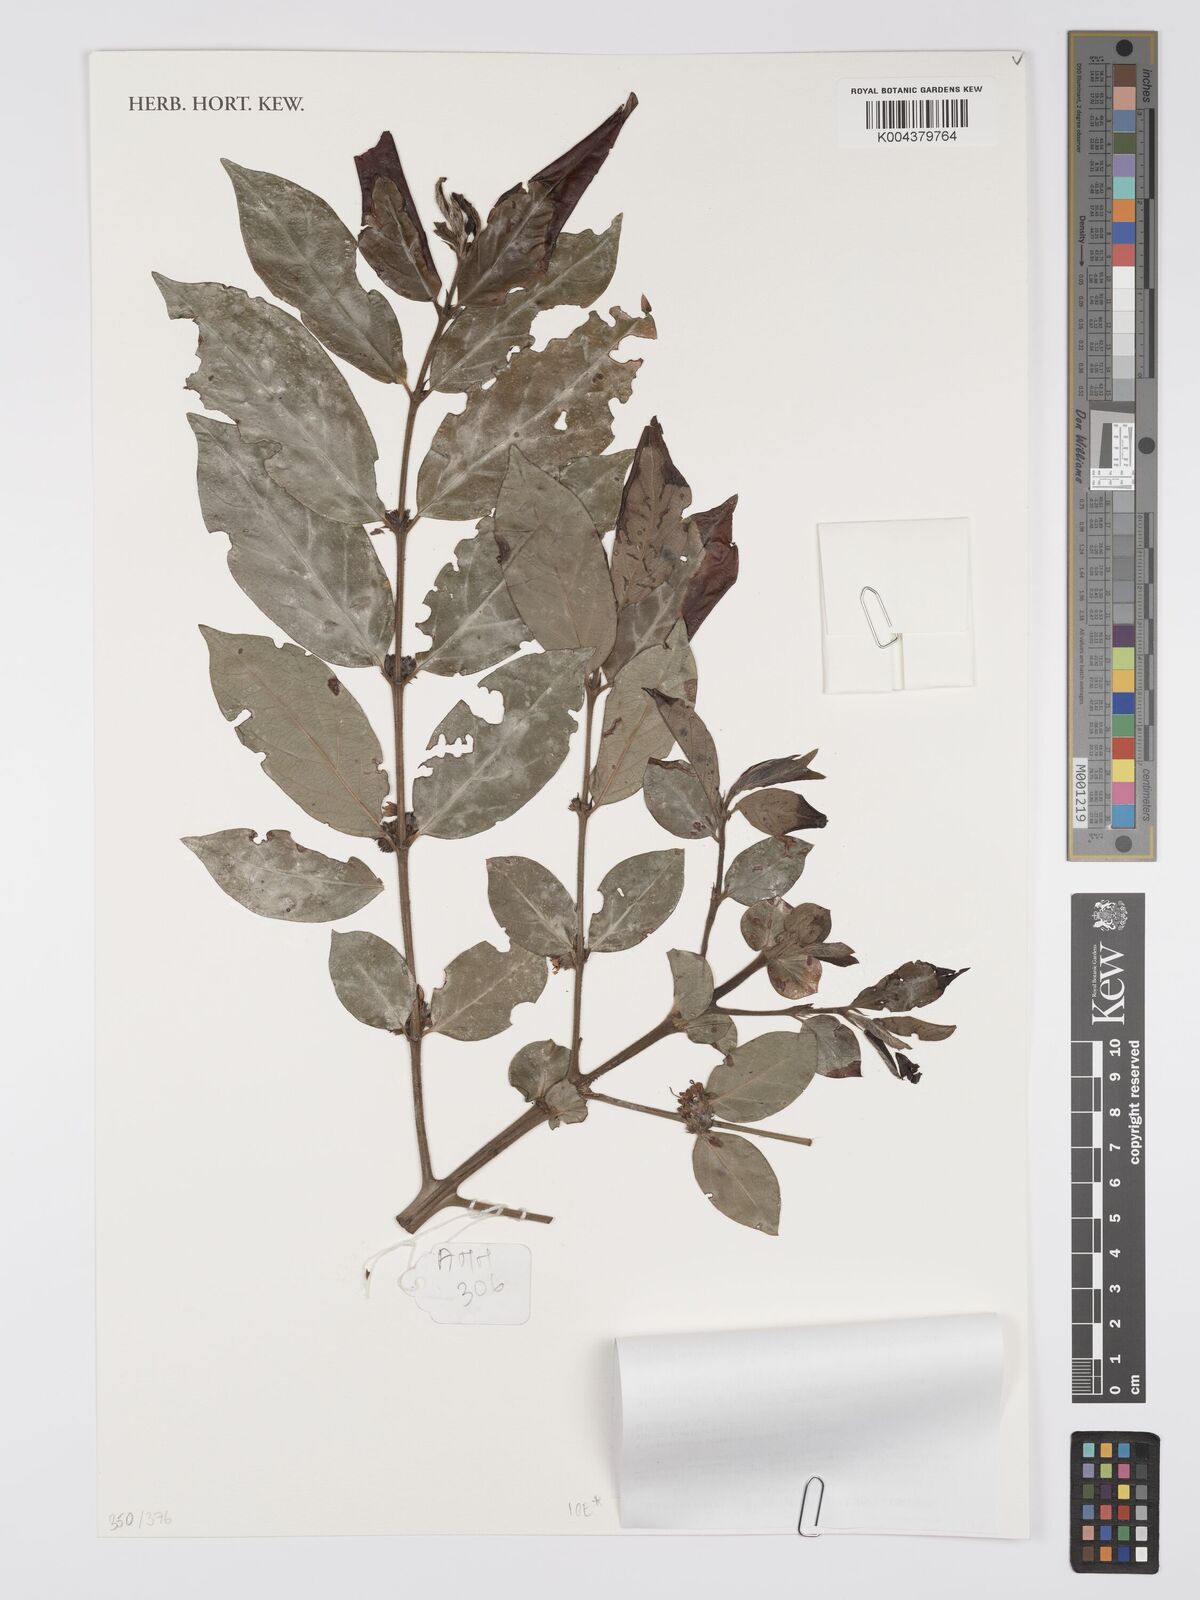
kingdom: Plantae
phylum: Tracheophyta
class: Magnoliopsida
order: Gentianales
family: Rubiaceae
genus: Cremaspora
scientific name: Cremaspora triflora
